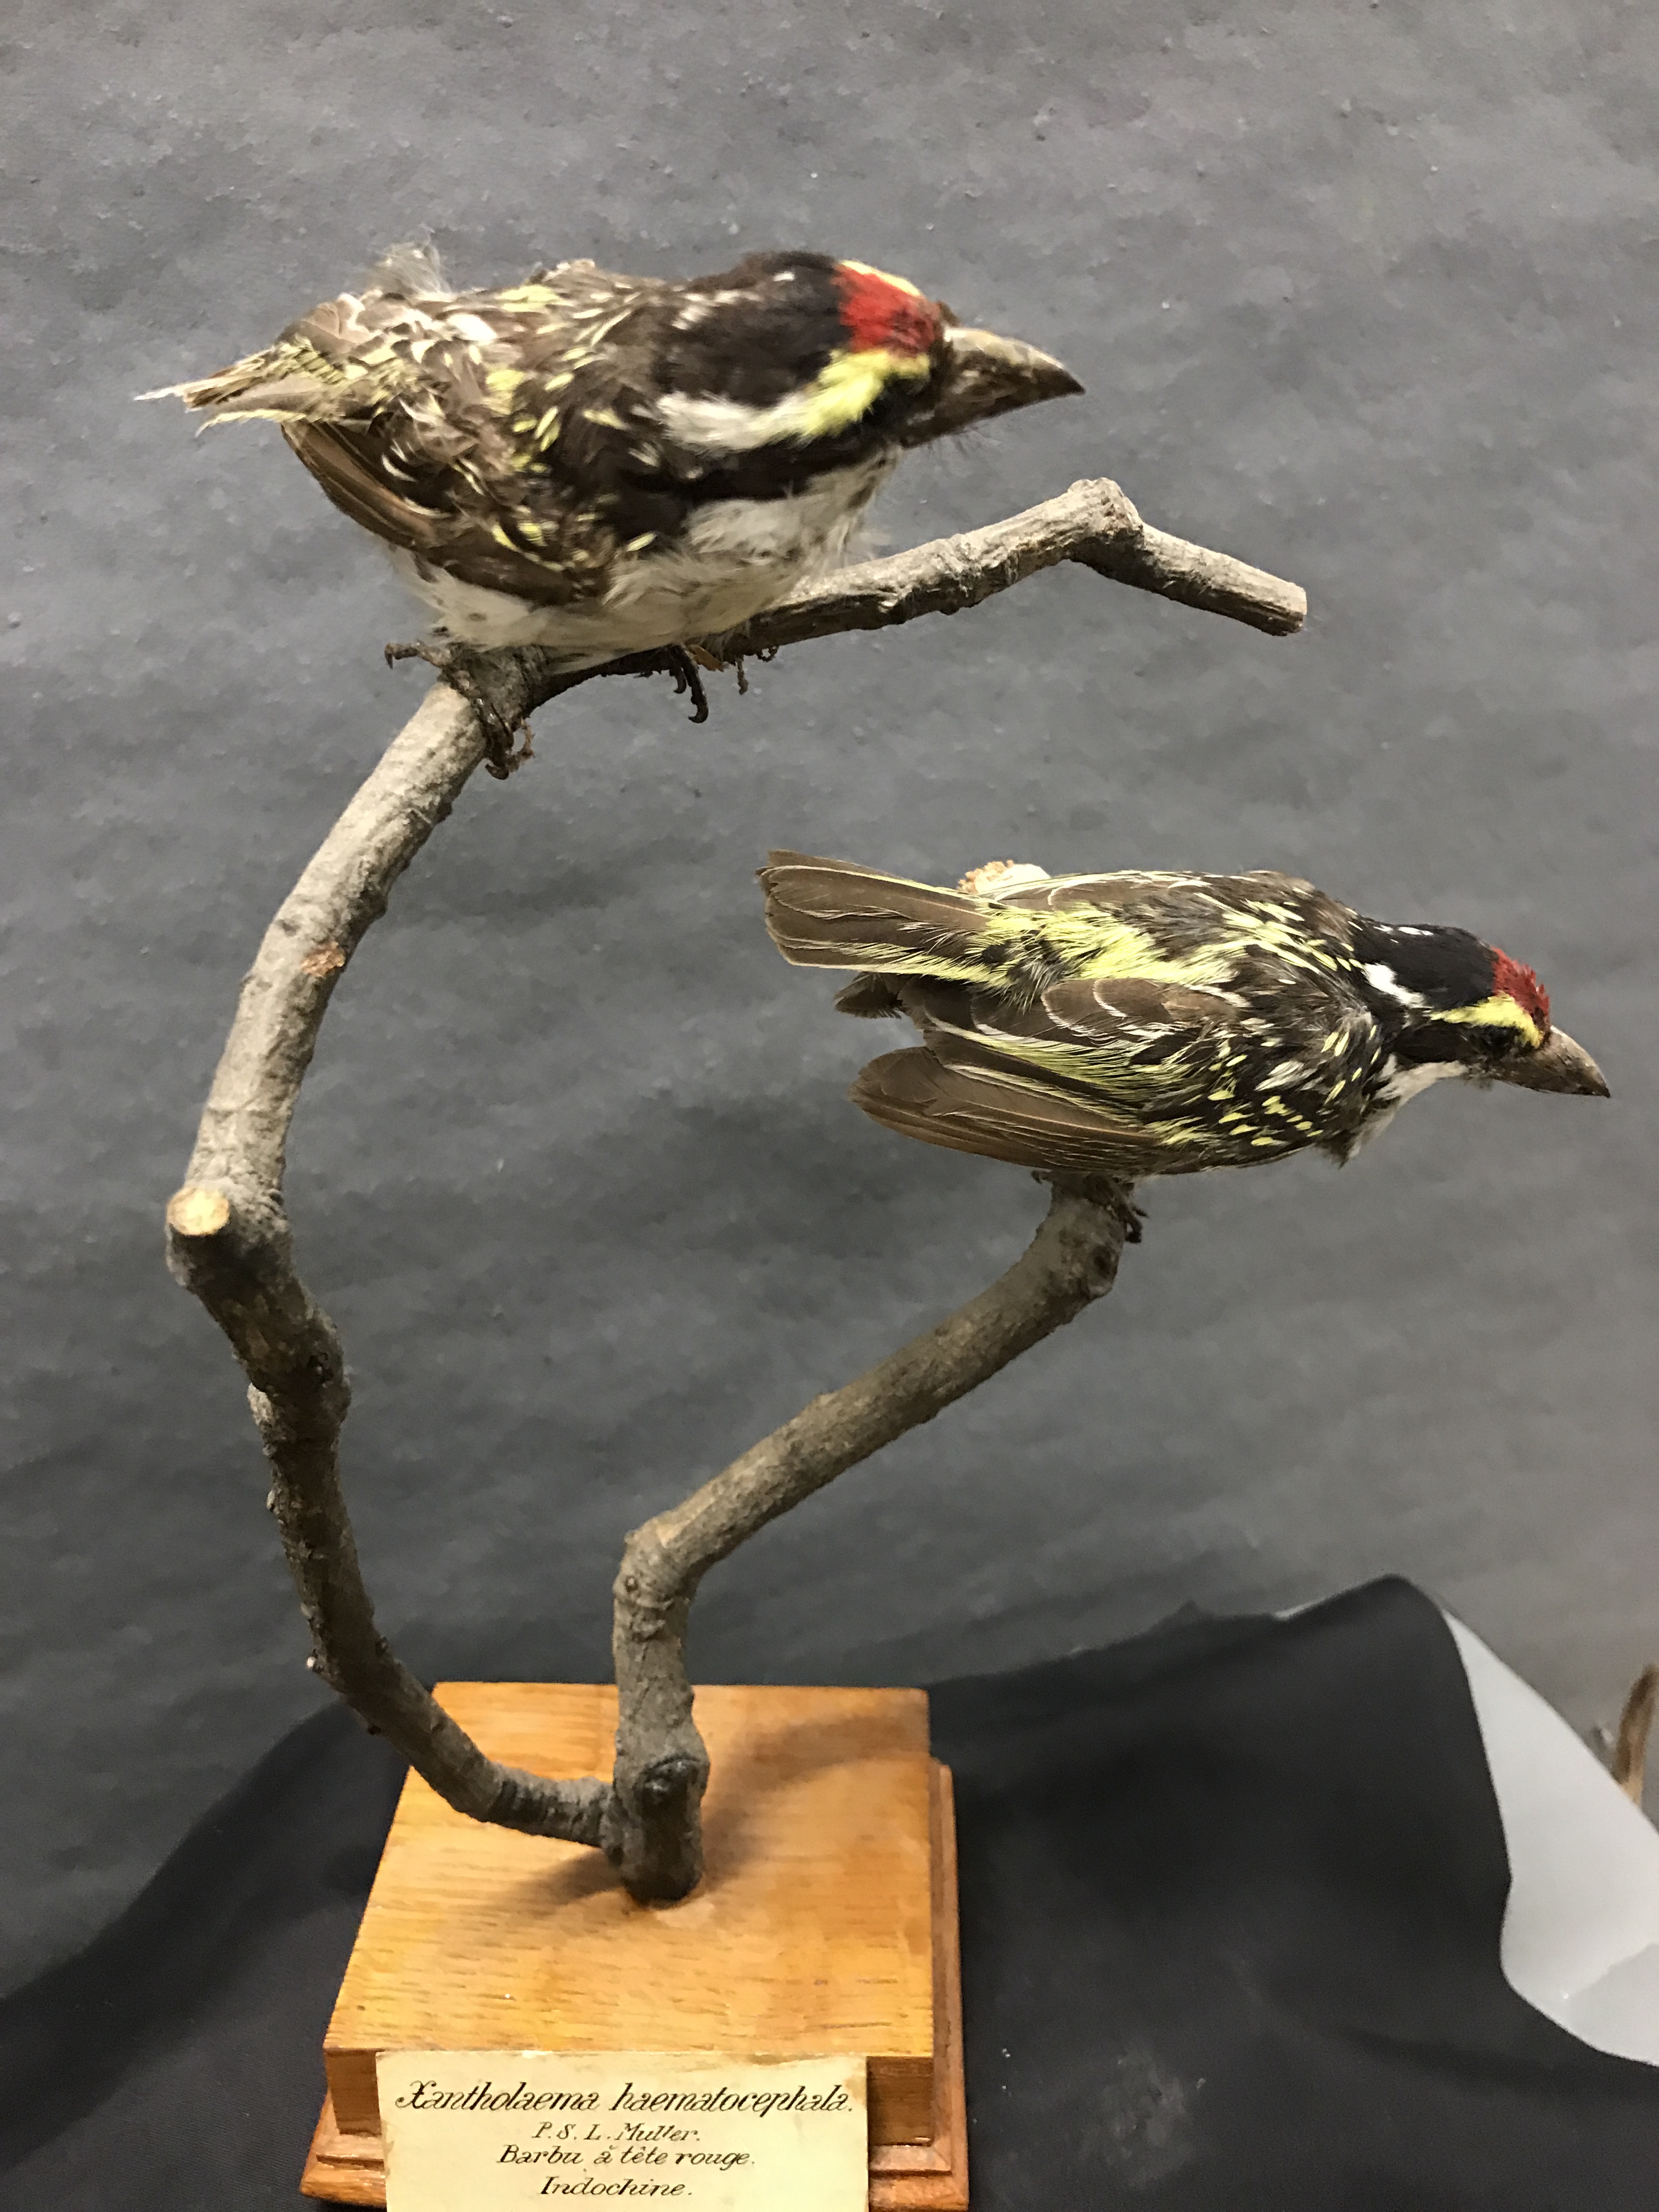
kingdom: Animalia
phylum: Chordata
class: Aves
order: Piciformes
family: Lybiidae
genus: Tricholaema
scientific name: Tricholaema frontata
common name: Miombo pied barbet
